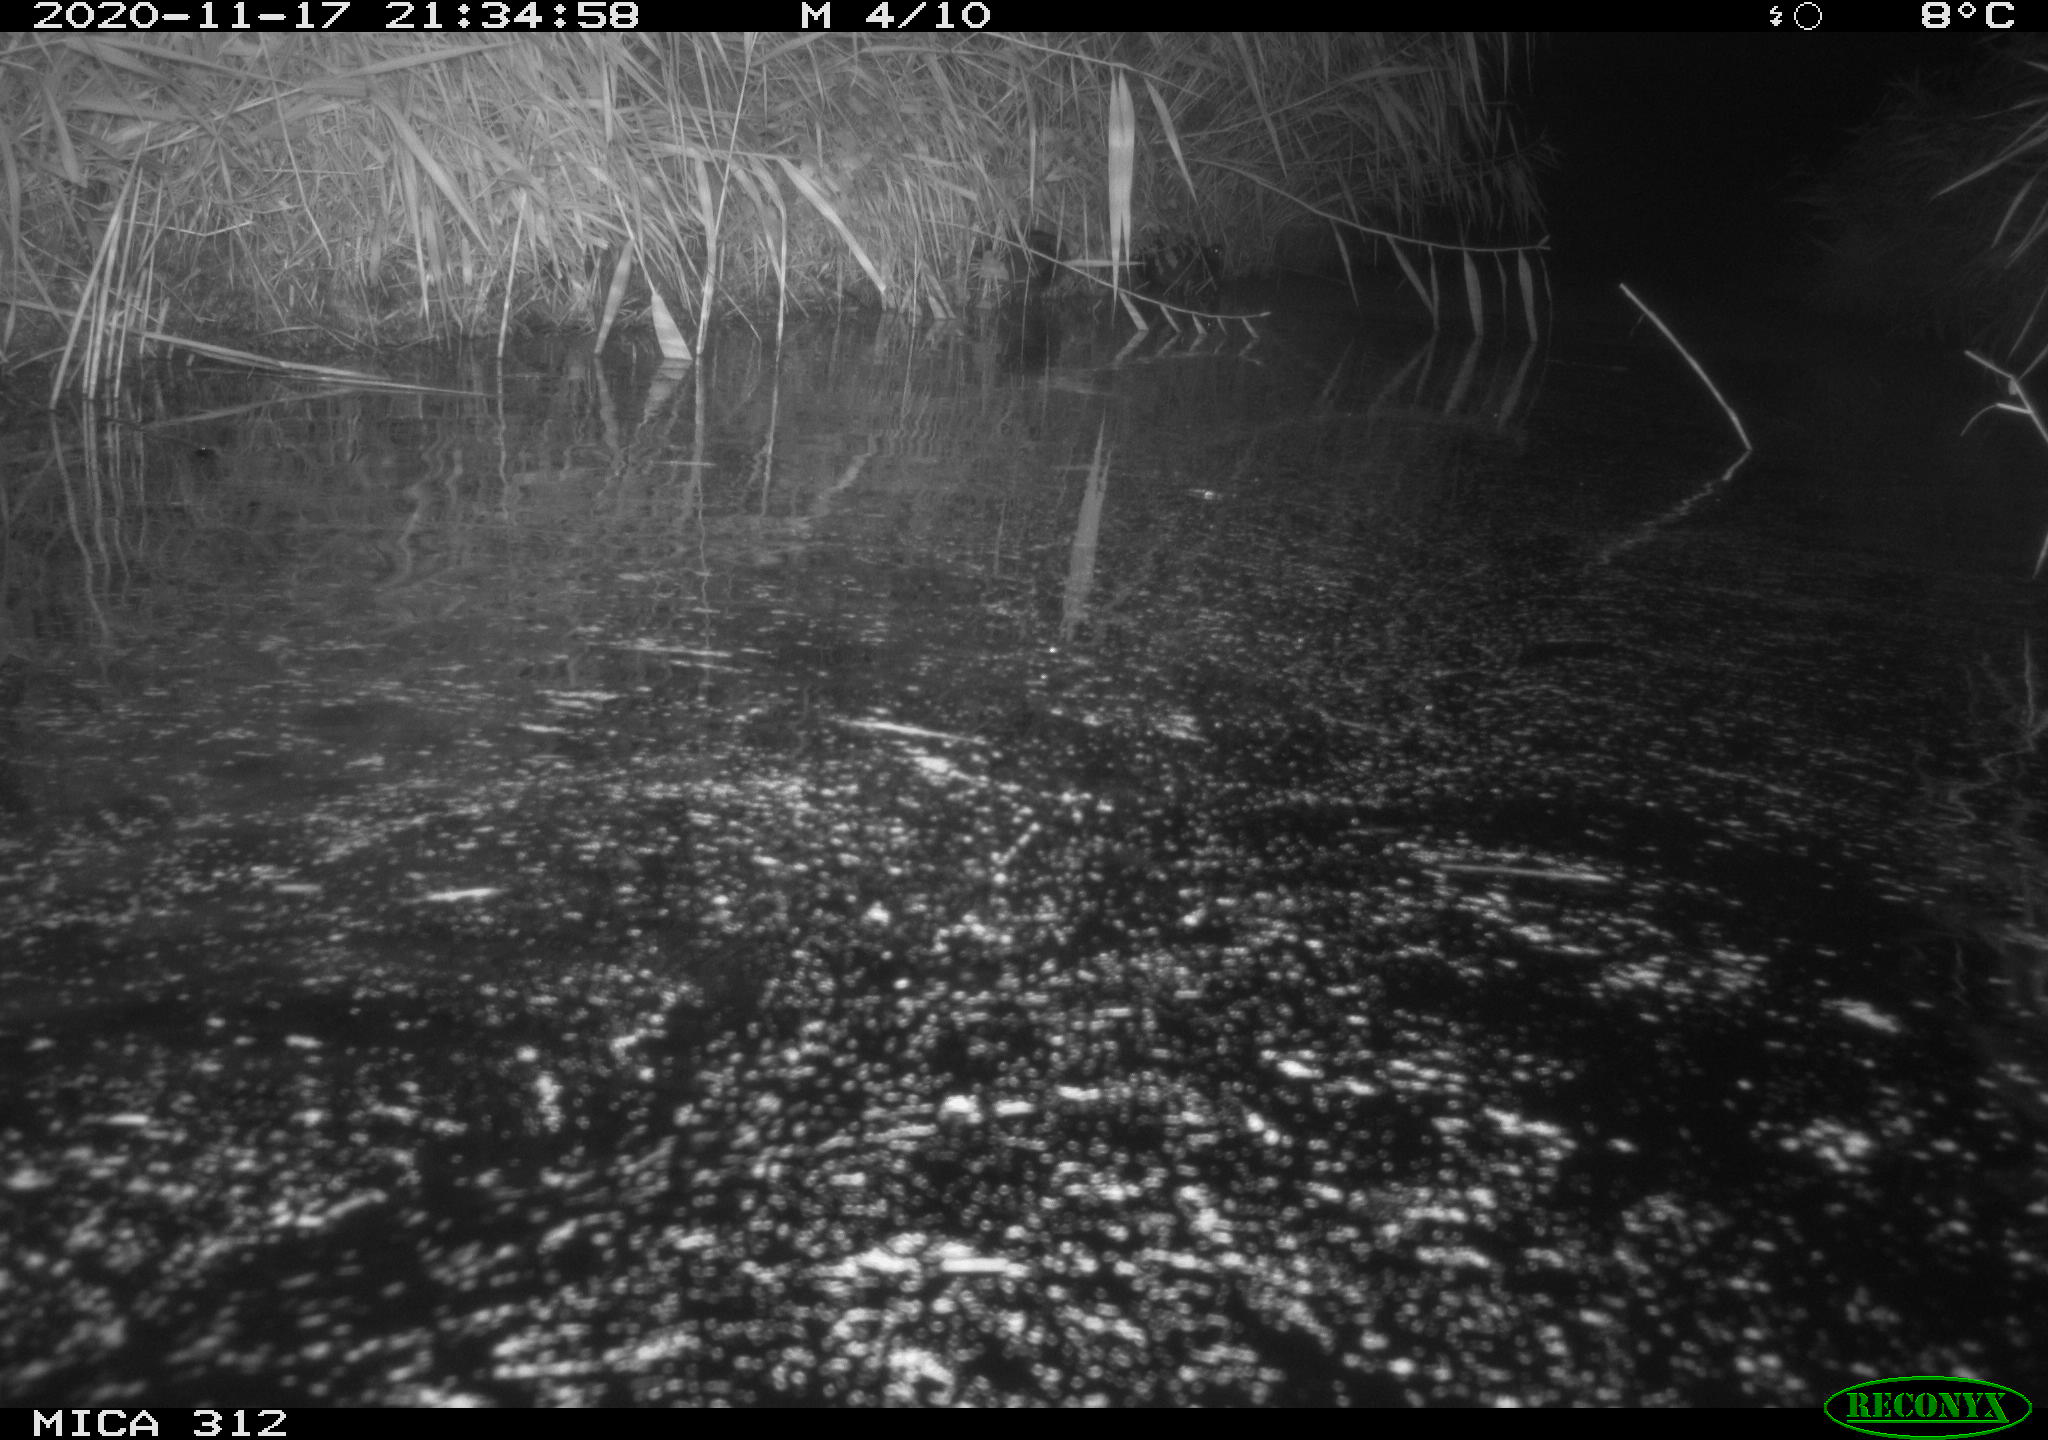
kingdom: Animalia
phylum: Chordata
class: Mammalia
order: Rodentia
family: Muridae
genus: Rattus
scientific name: Rattus norvegicus
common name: Brown rat
